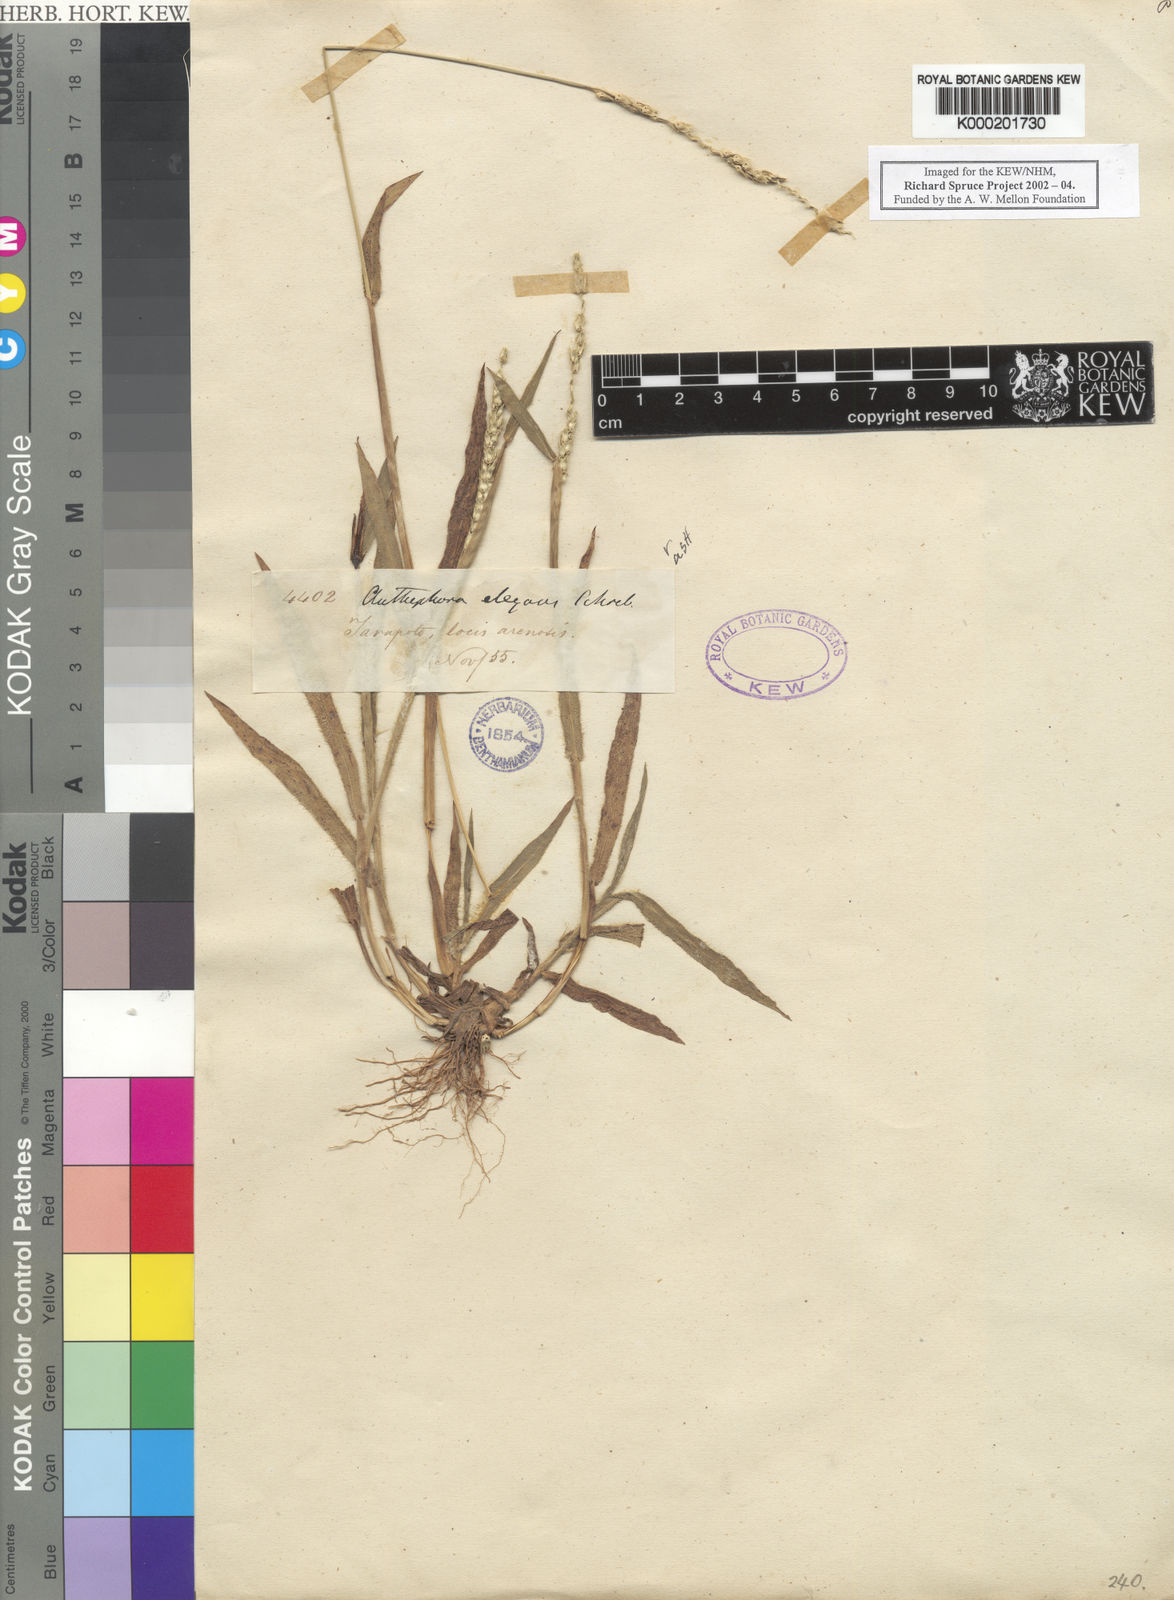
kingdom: Plantae
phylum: Tracheophyta
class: Liliopsida
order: Poales
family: Poaceae
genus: Anthephora
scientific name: Anthephora hermaphrodita
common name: Oldfield grass
